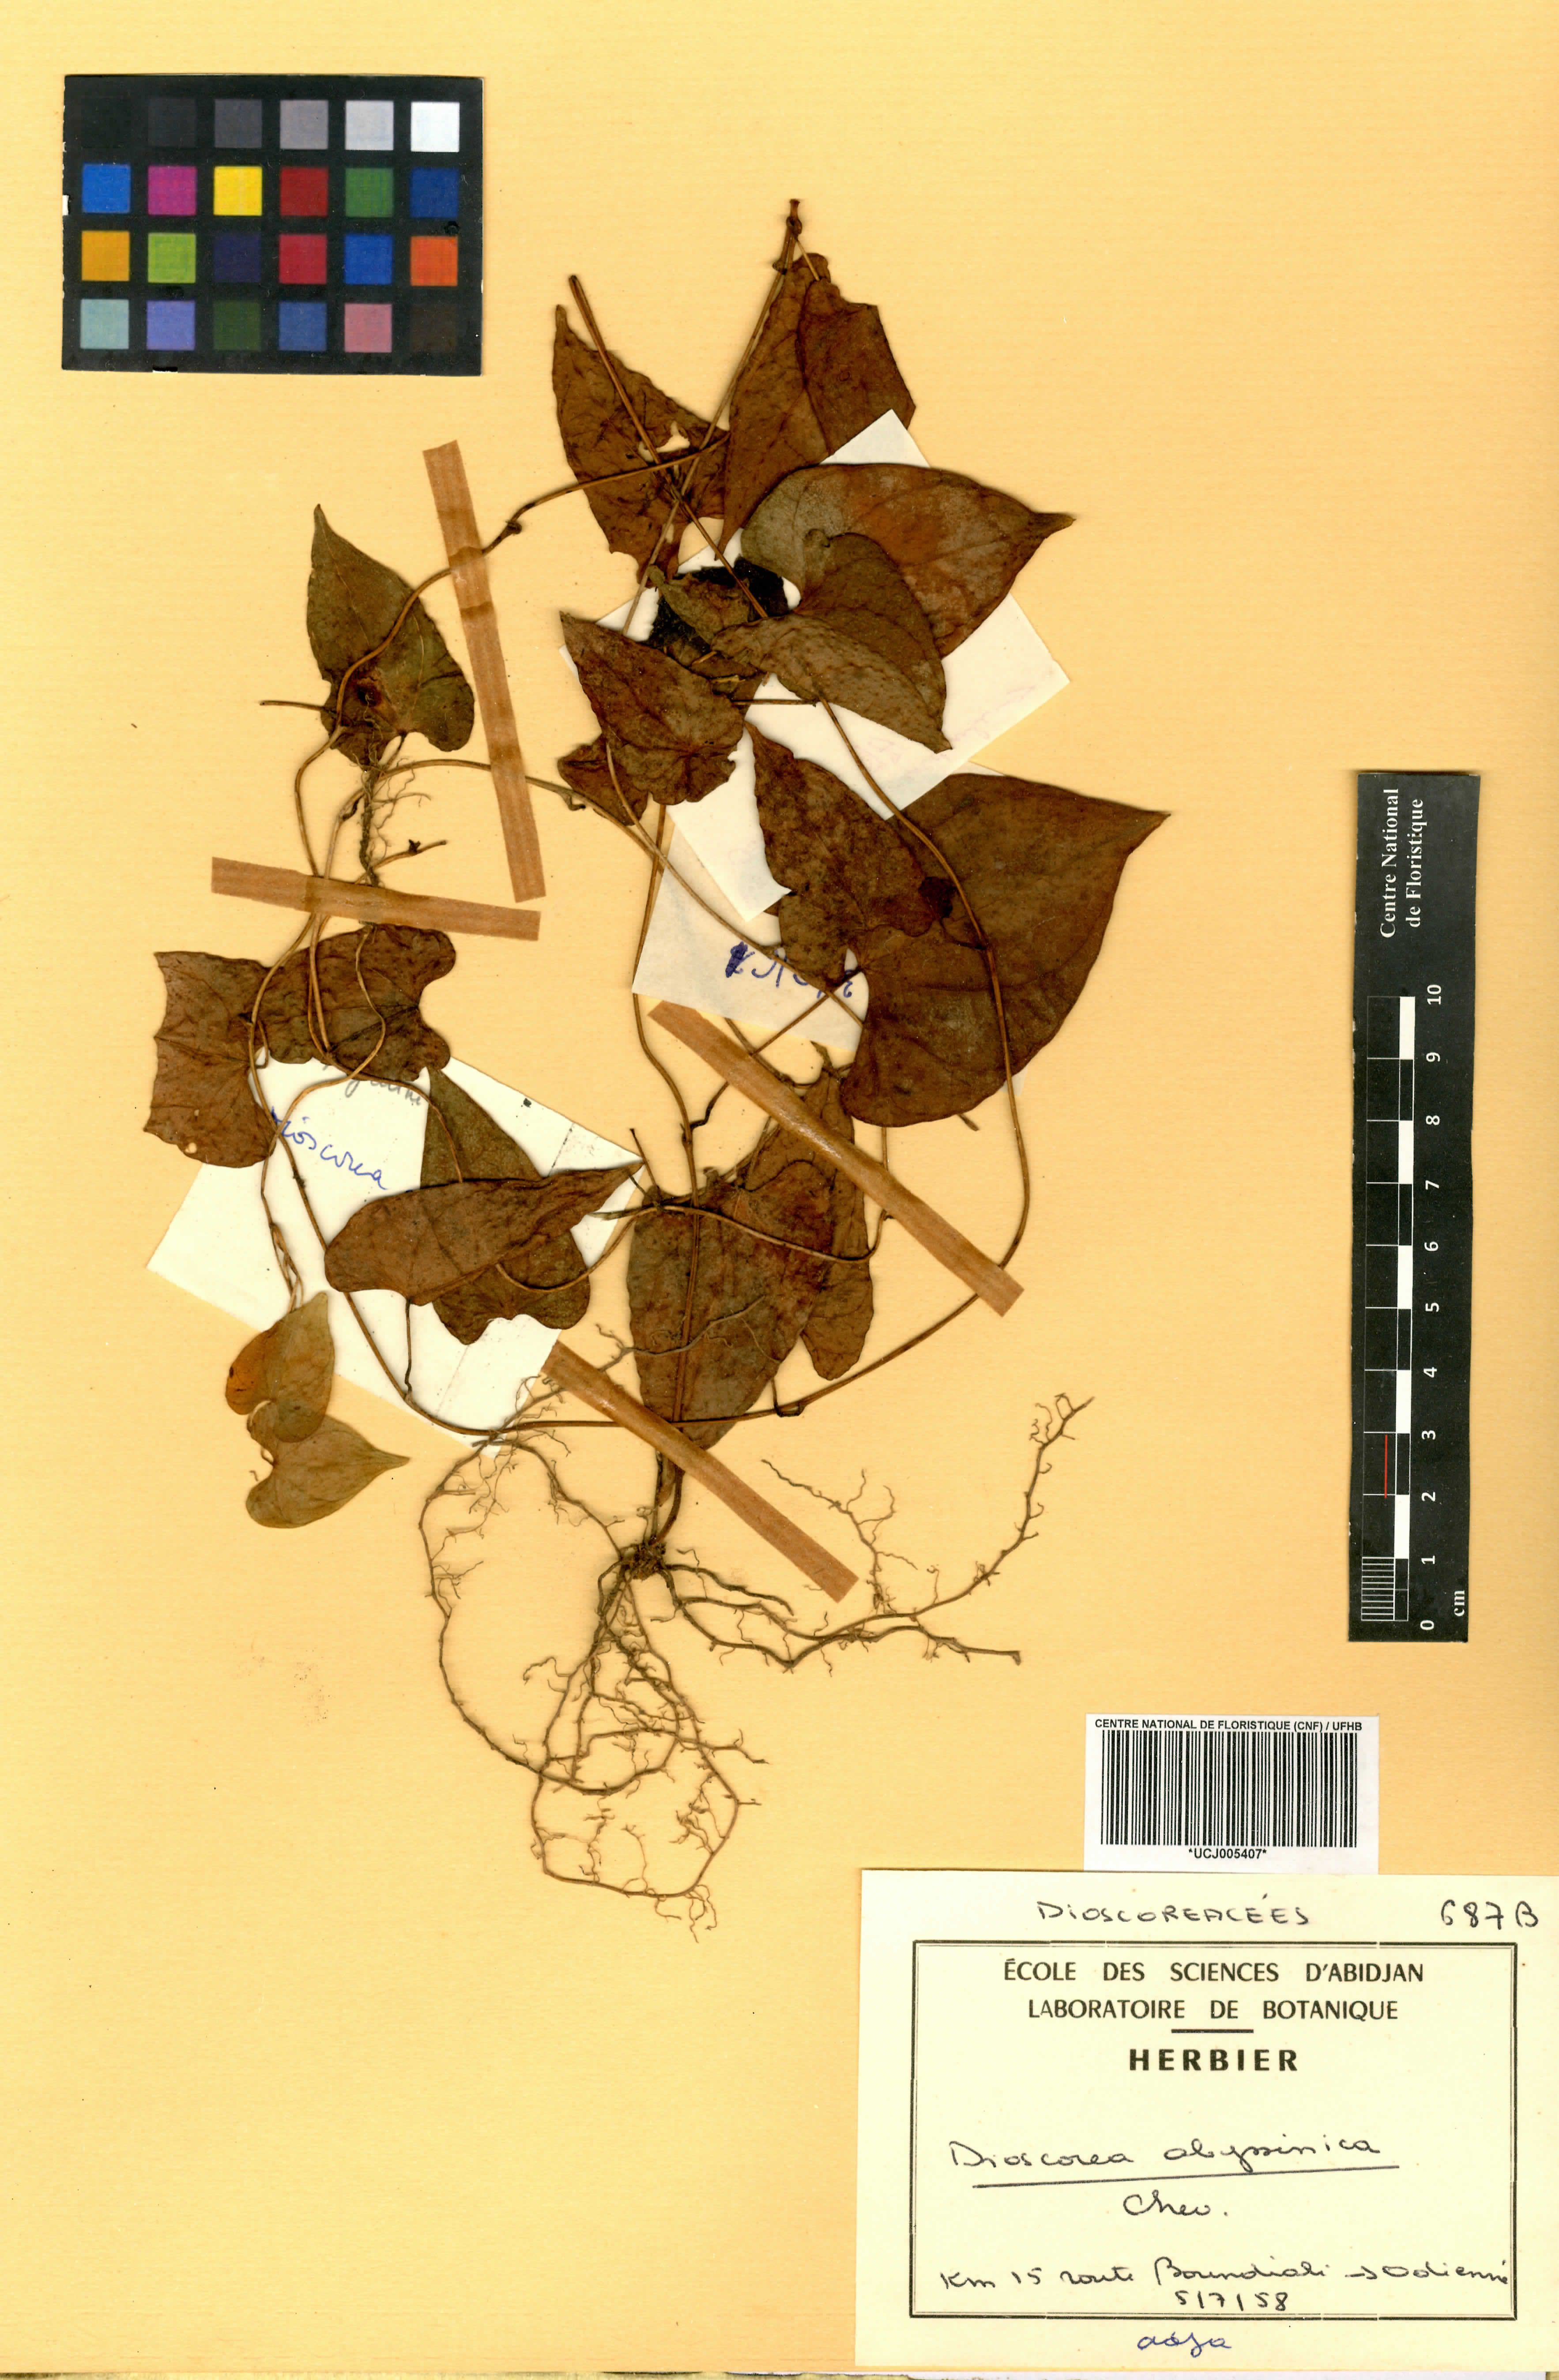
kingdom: Plantae
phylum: Tracheophyta
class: Liliopsida
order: Dioscoreales
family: Dioscoreaceae
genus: Dioscorea
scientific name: Dioscorea abyssinica
